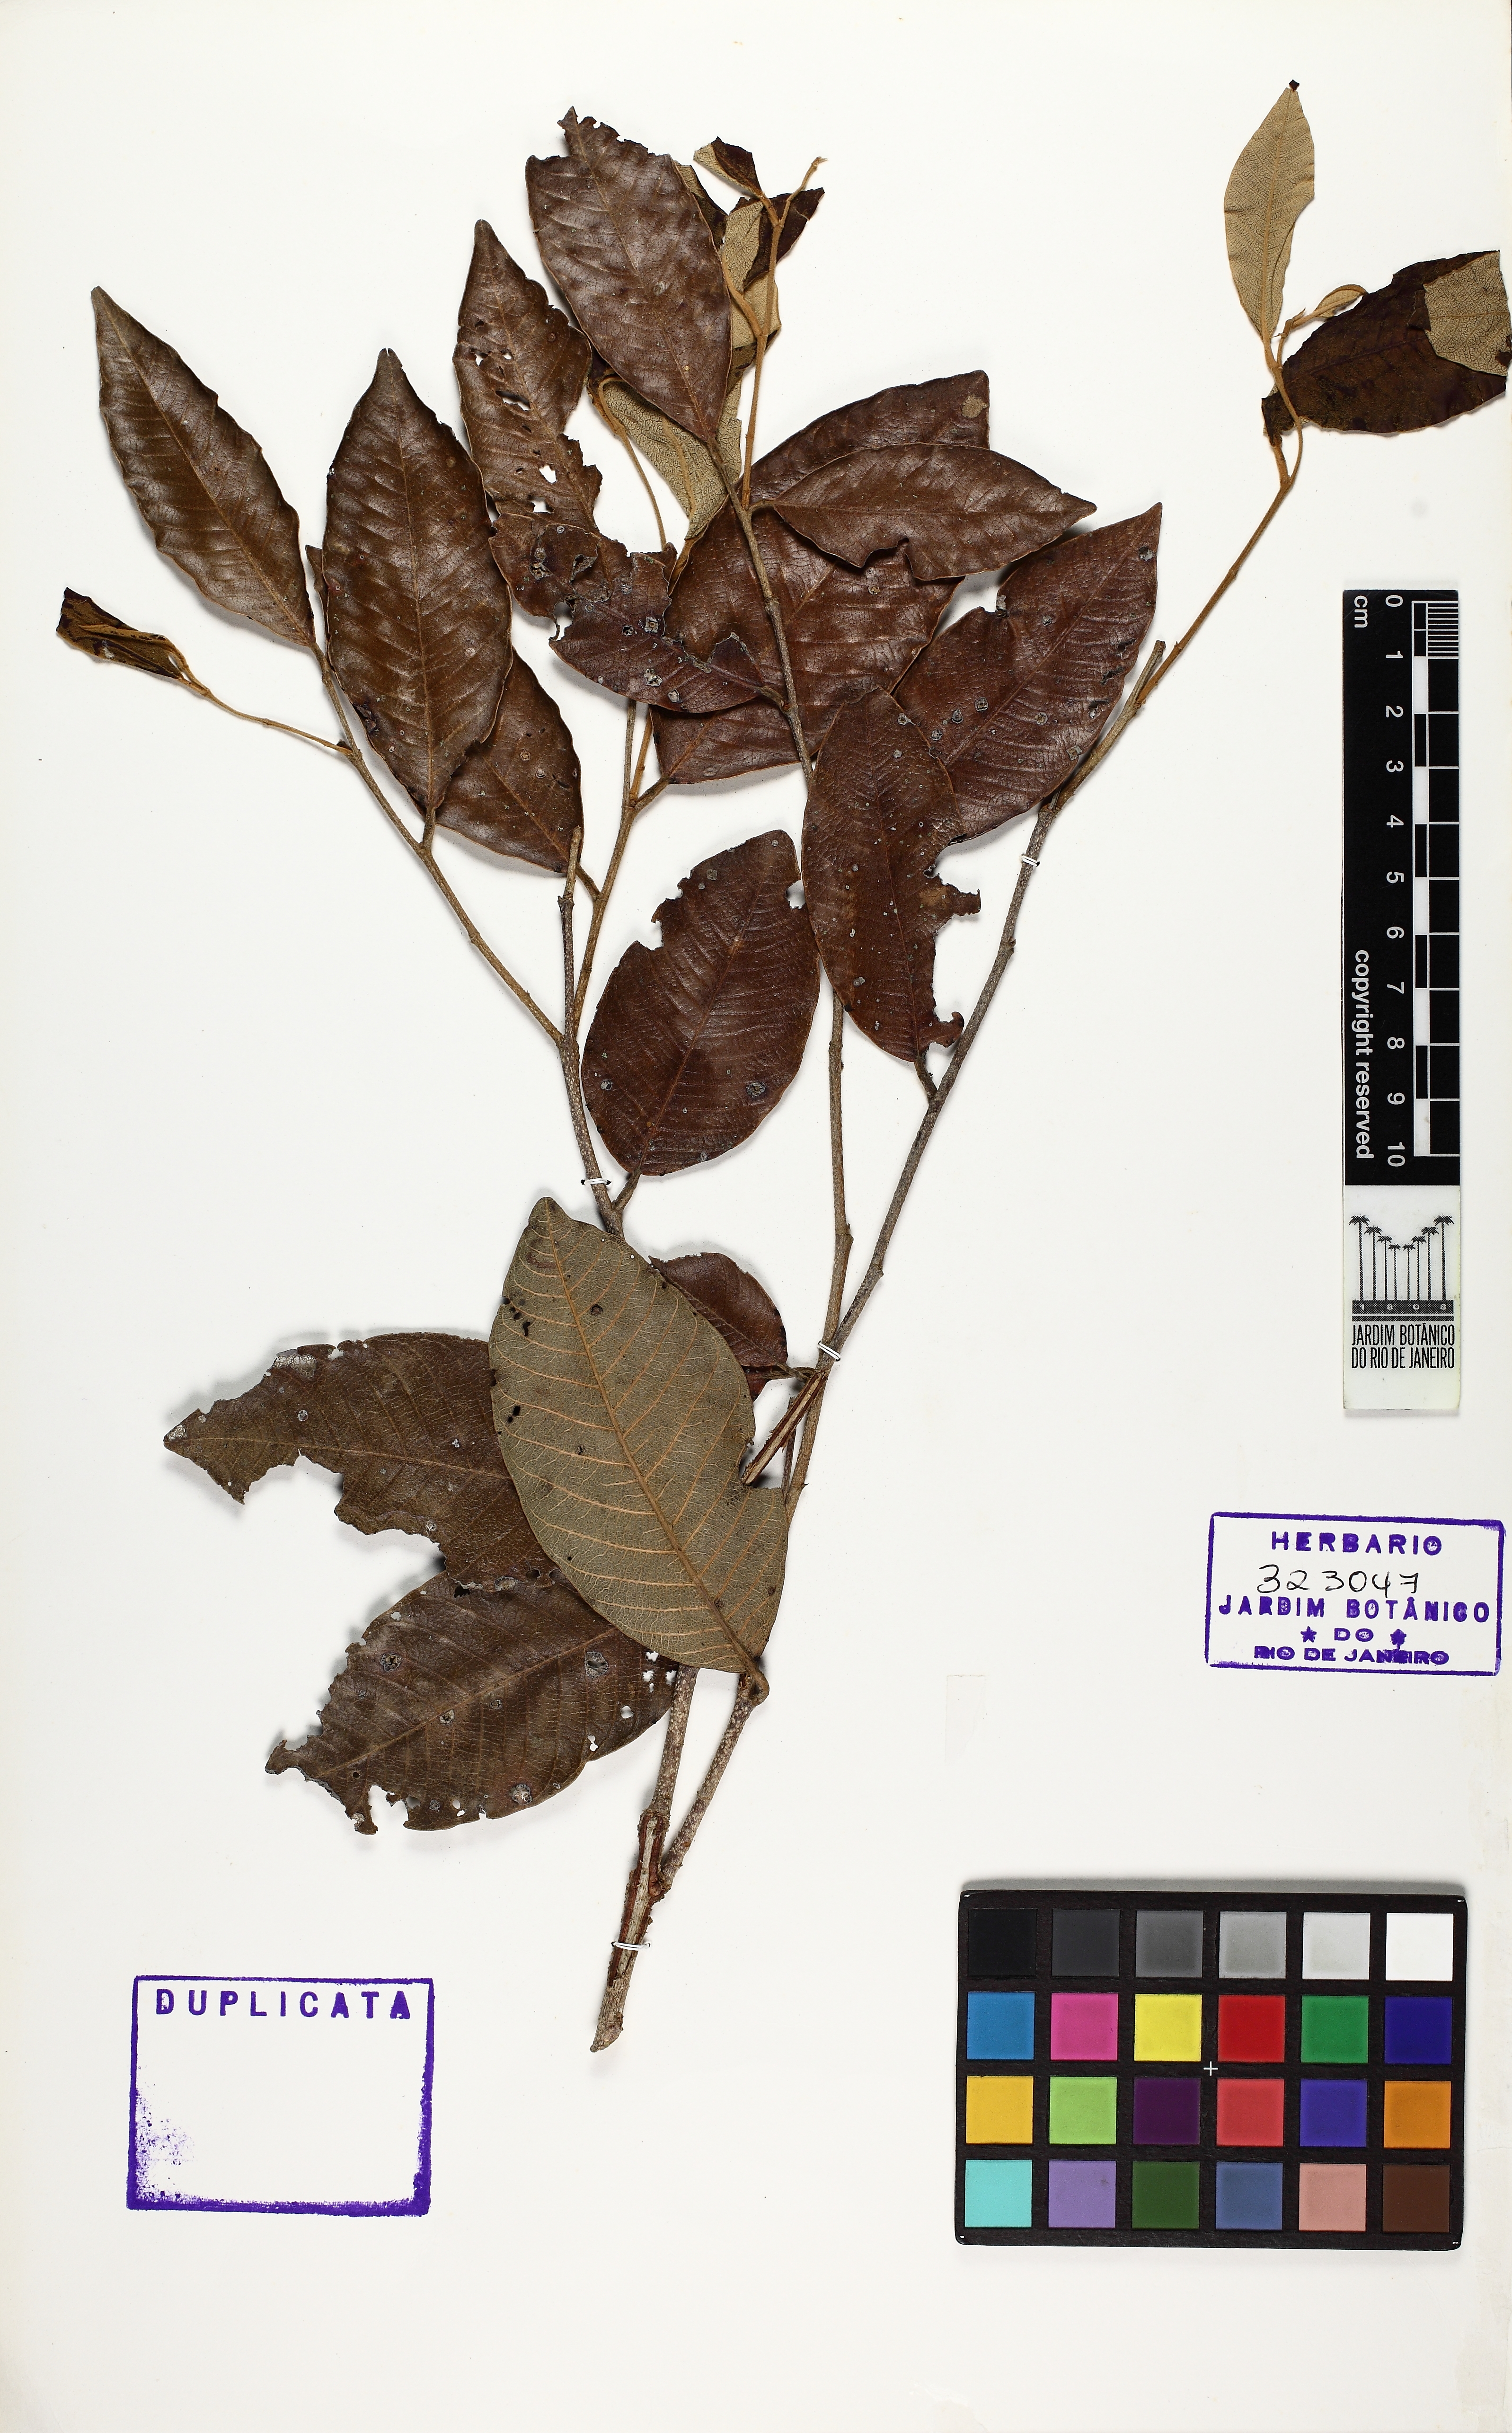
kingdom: Plantae
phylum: Tracheophyta
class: Magnoliopsida
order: Malpighiales
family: Chrysobalanaceae
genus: Parinari
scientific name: Parinari excelsa
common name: Guinea-plum
